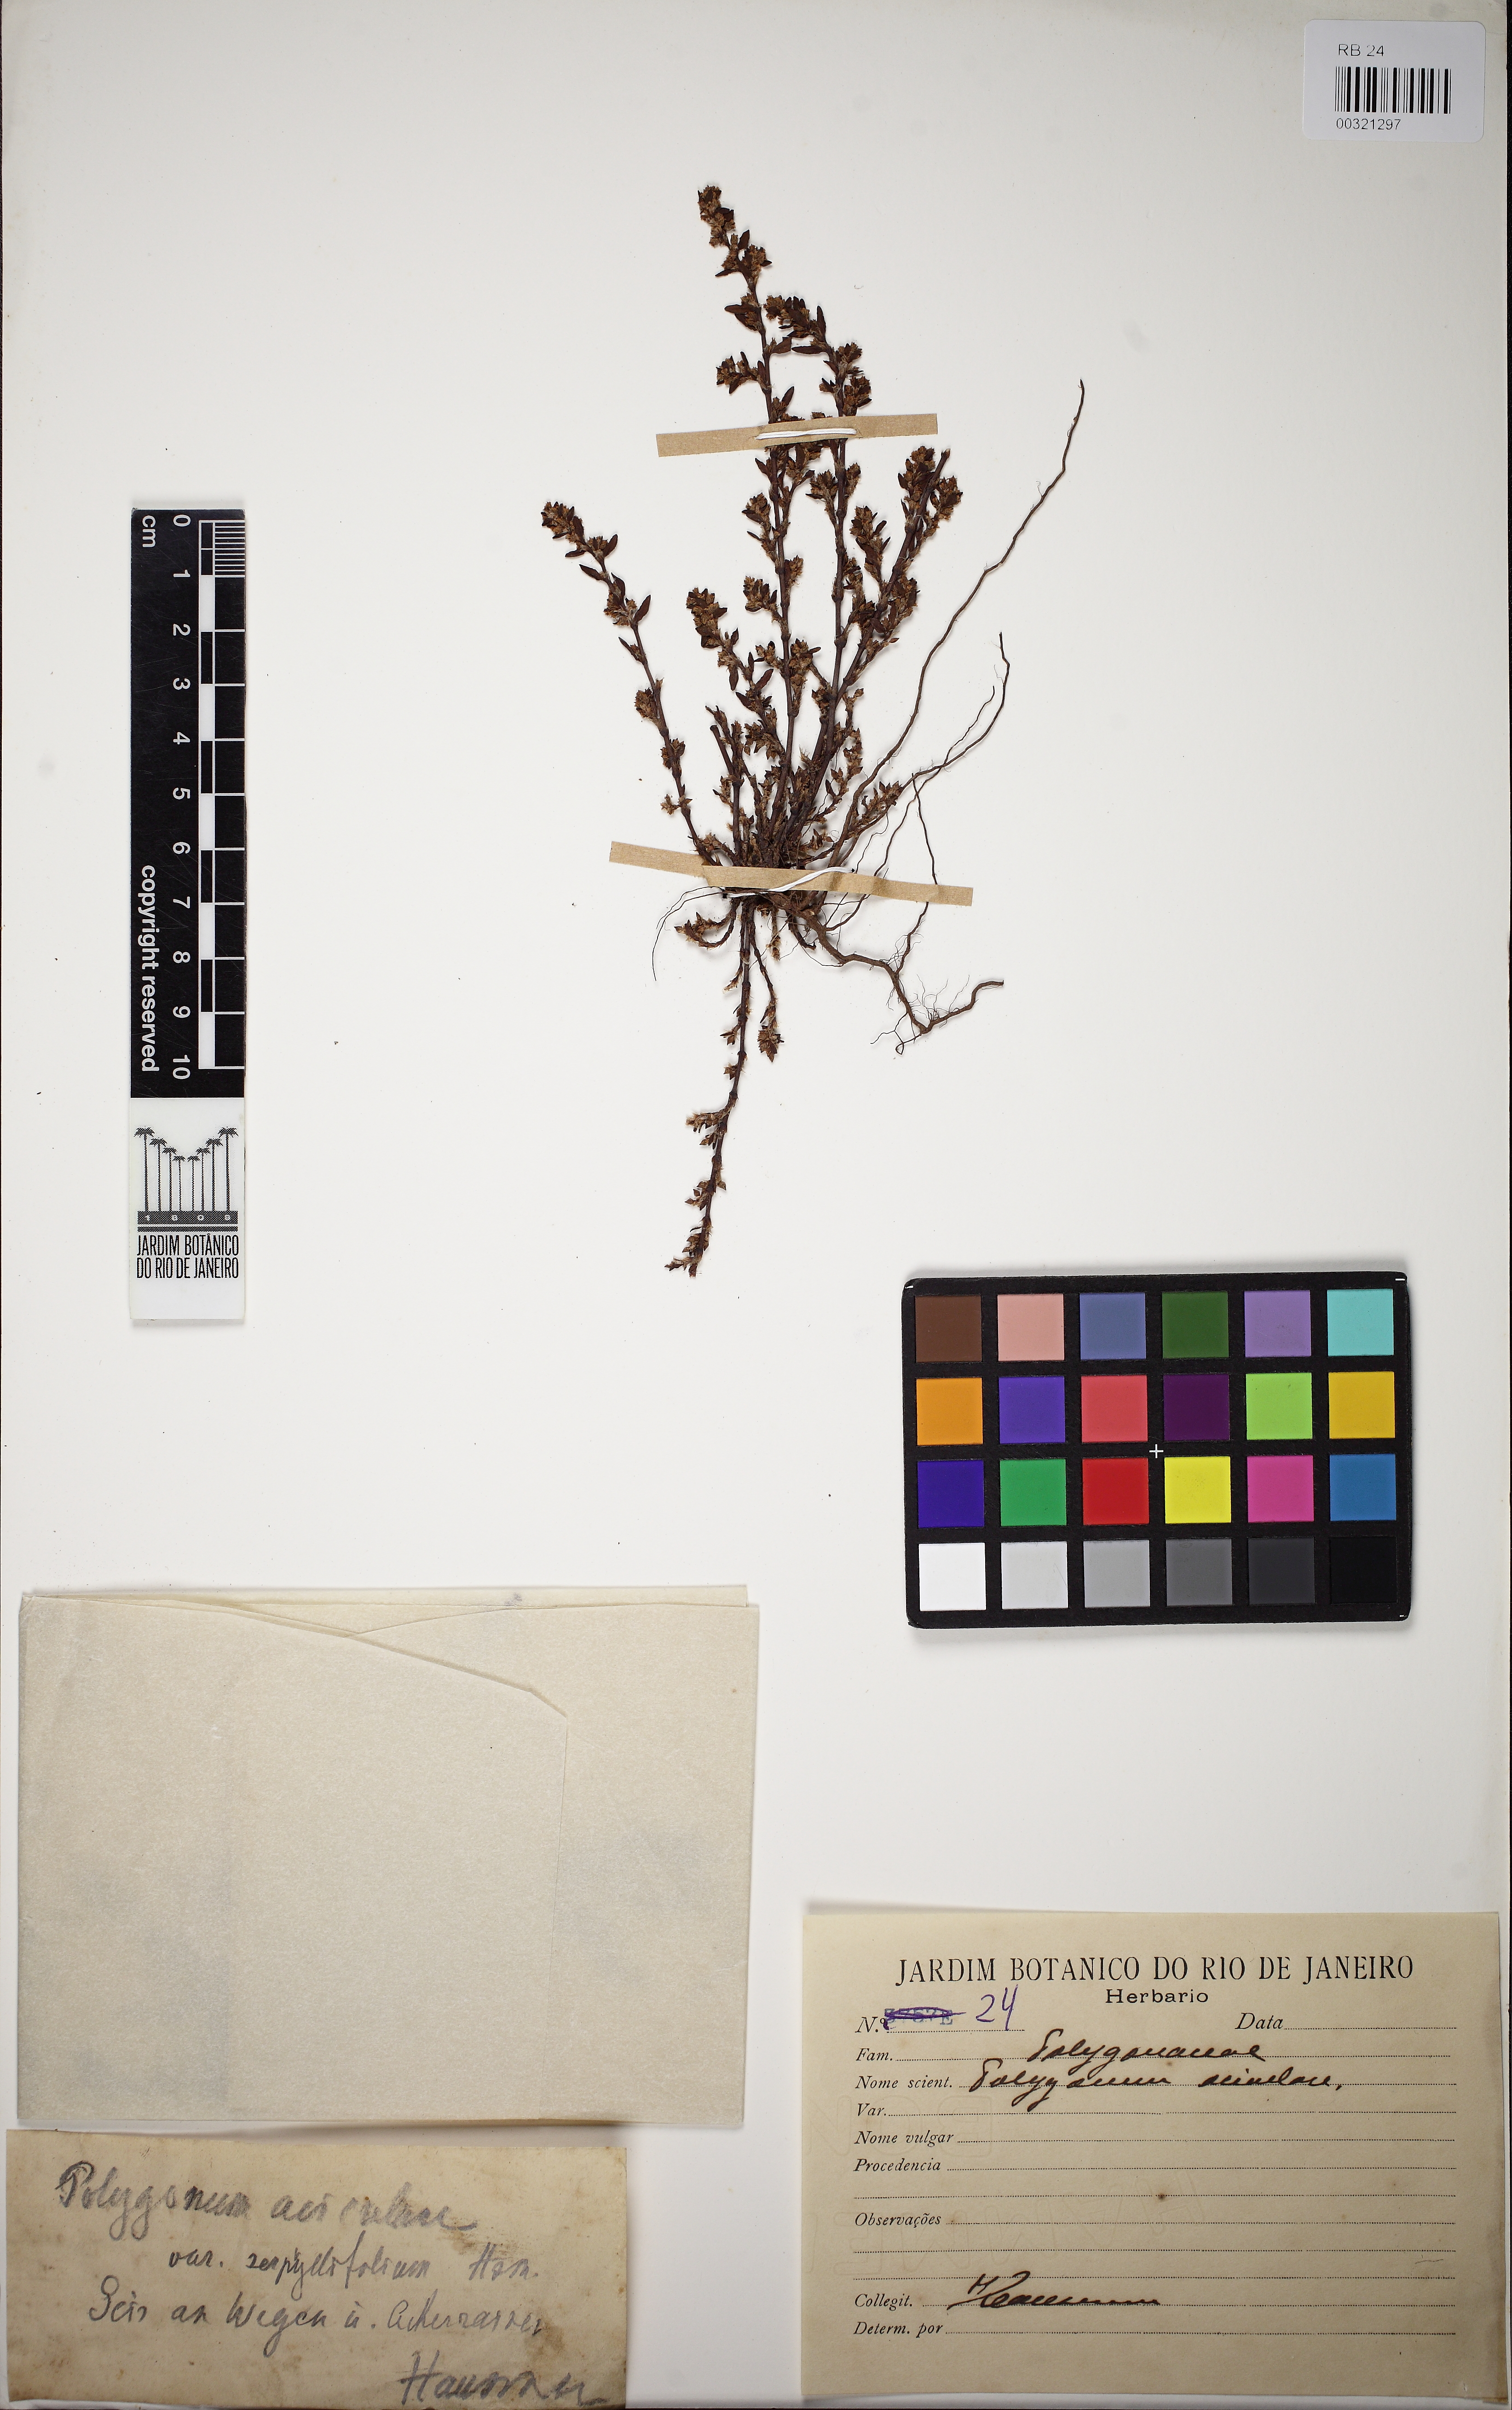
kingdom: Plantae
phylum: Tracheophyta
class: Magnoliopsida
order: Caryophyllales
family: Polygonaceae
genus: Polygonum
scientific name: Polygonum aviculare
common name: Prostrate knotweed
